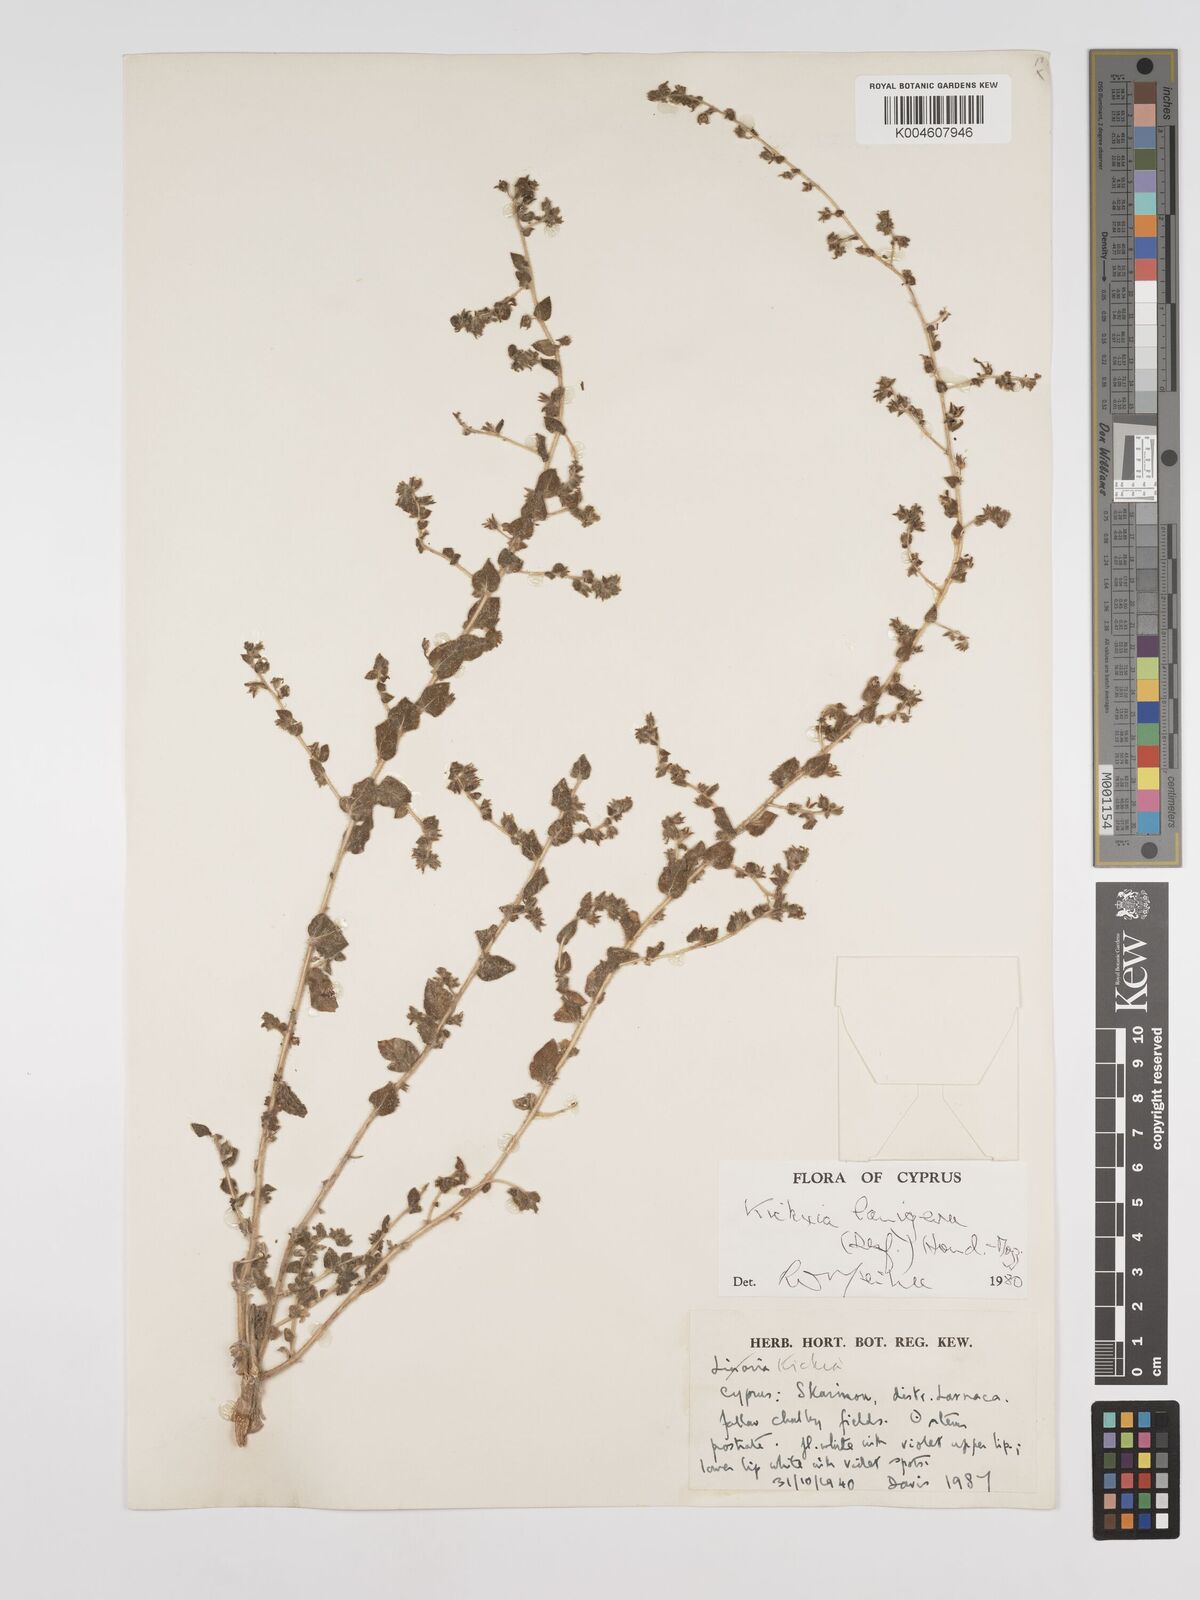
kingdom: Plantae
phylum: Tracheophyta
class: Magnoliopsida
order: Lamiales
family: Plantaginaceae
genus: Kickxia
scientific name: Kickxia lanigera
